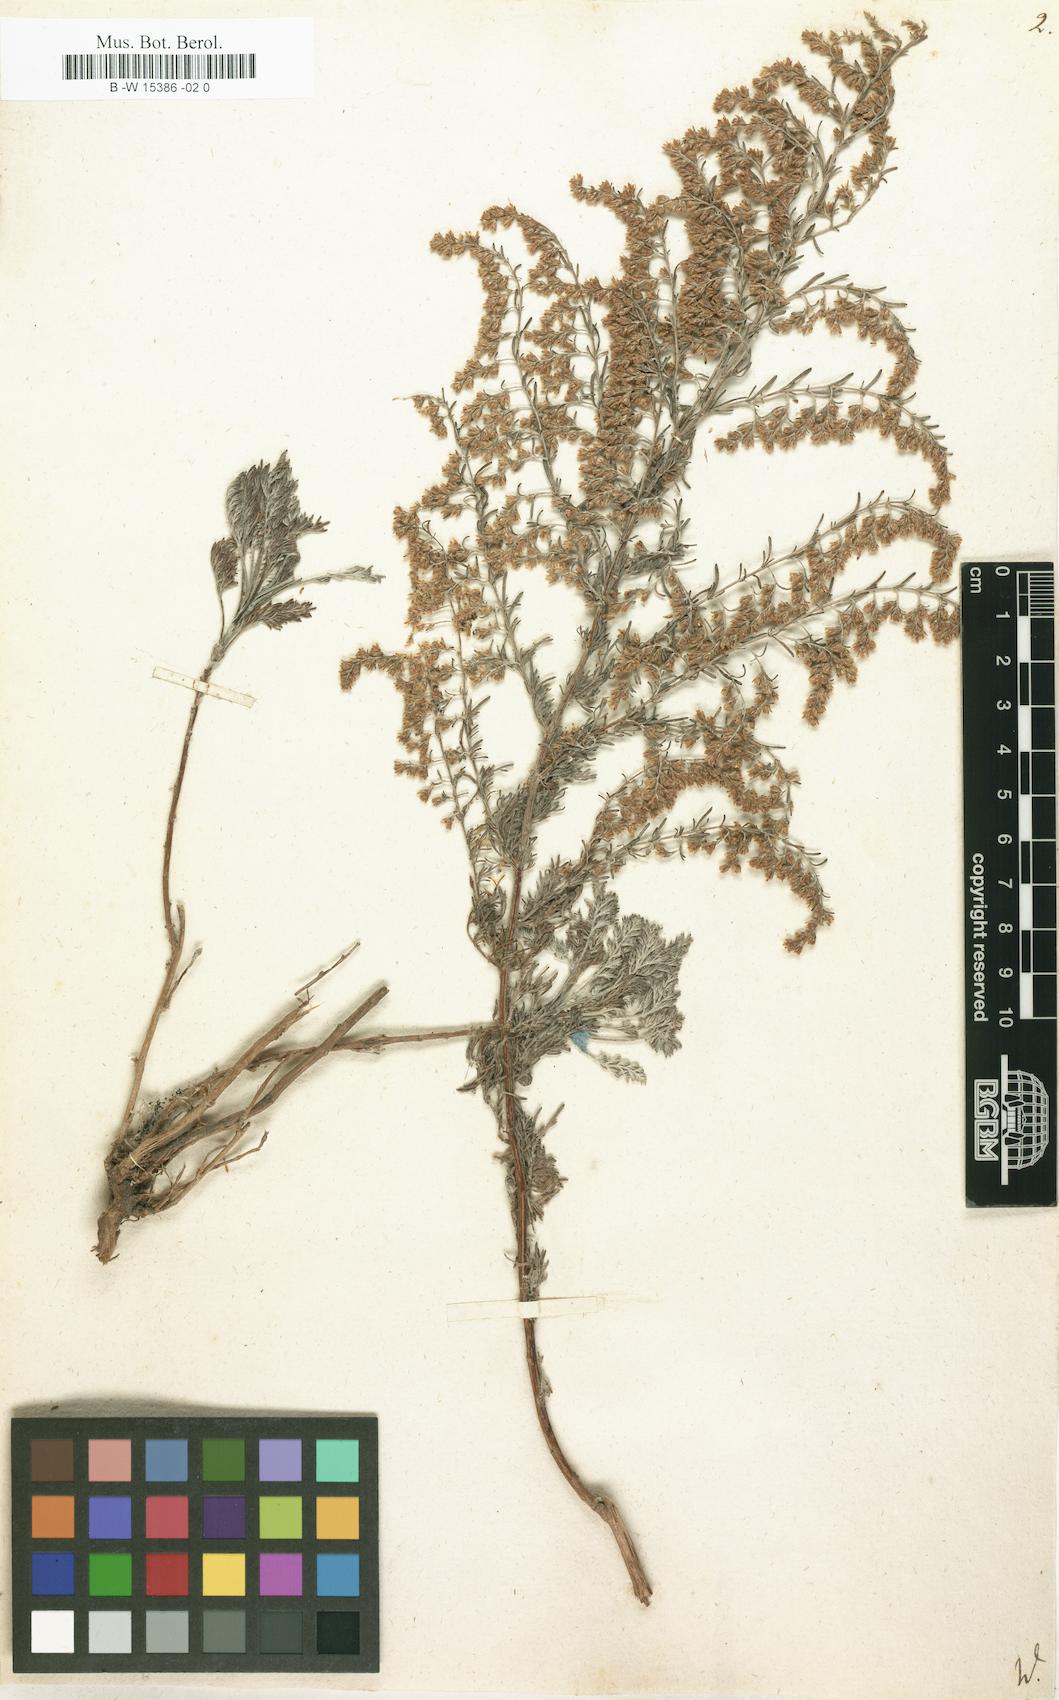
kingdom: Plantae
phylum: Tracheophyta
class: Magnoliopsida
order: Asterales
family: Asteraceae
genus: Artemisia
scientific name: Artemisia
